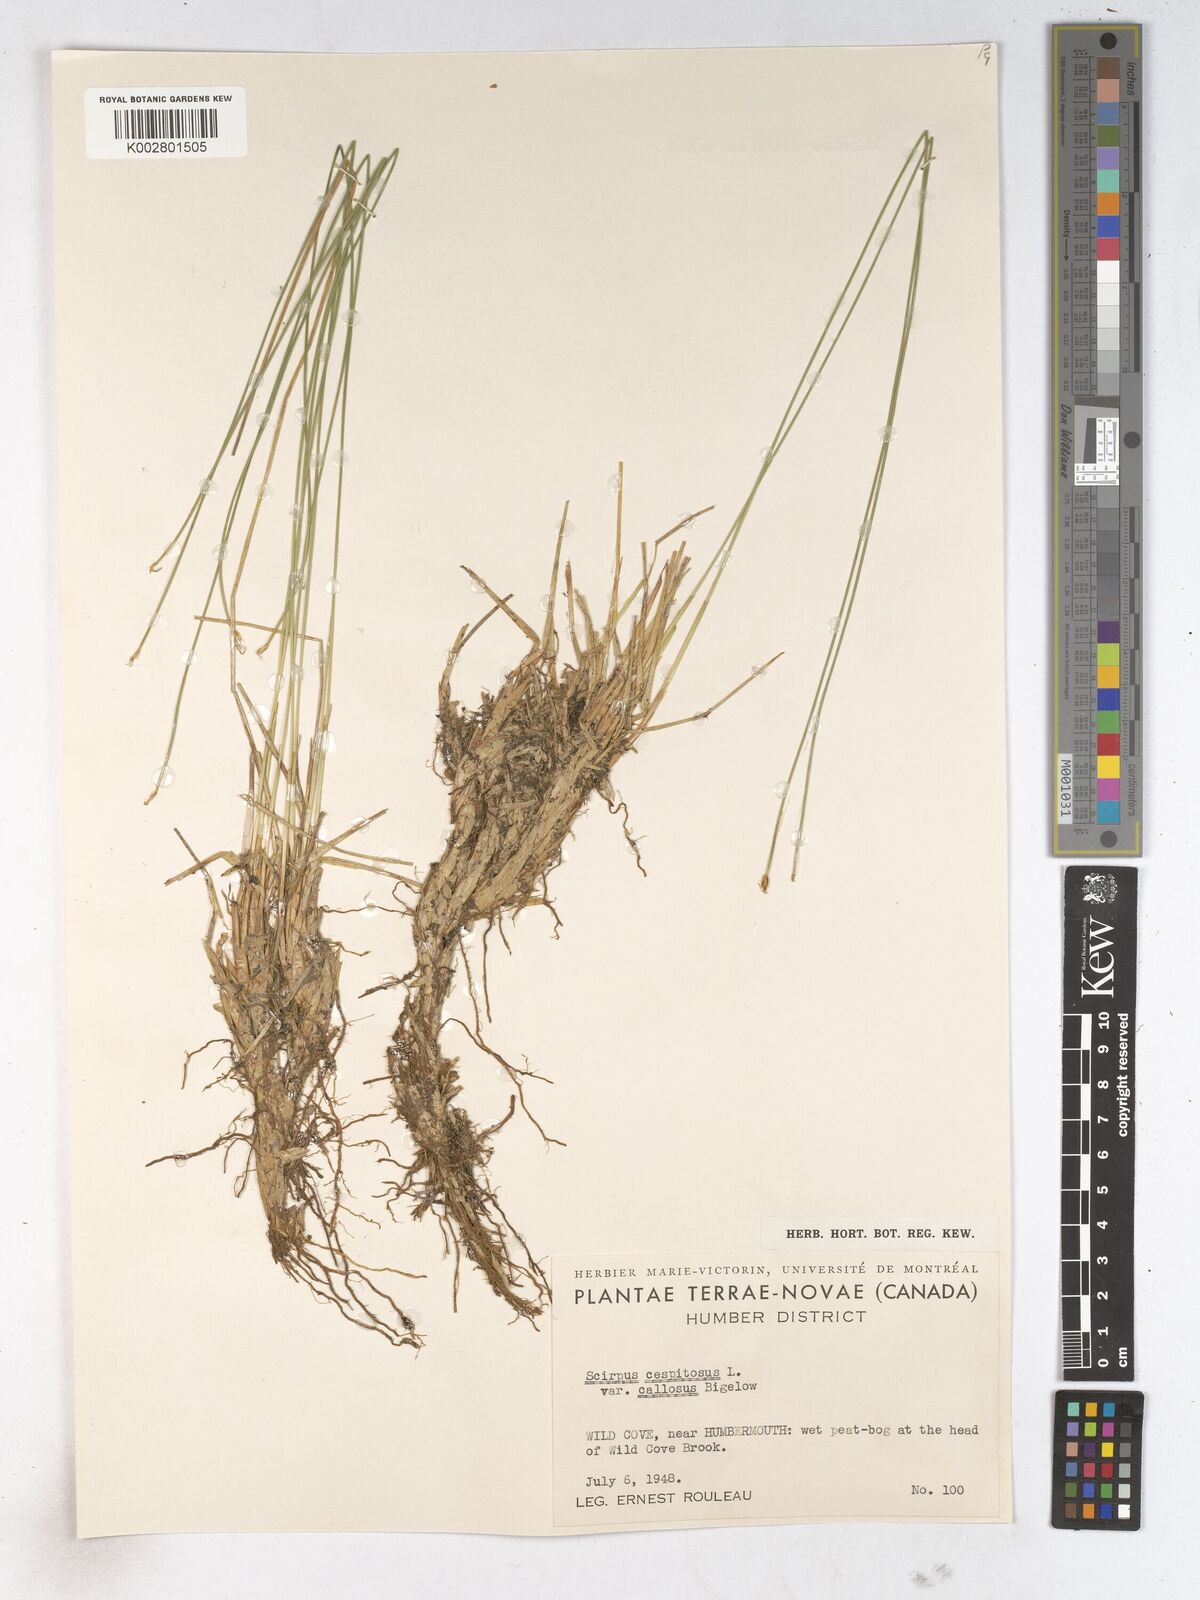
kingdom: Plantae
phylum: Tracheophyta
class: Liliopsida
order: Poales
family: Cyperaceae
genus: Trichophorum
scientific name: Trichophorum cespitosum
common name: Cespitose bulrush
